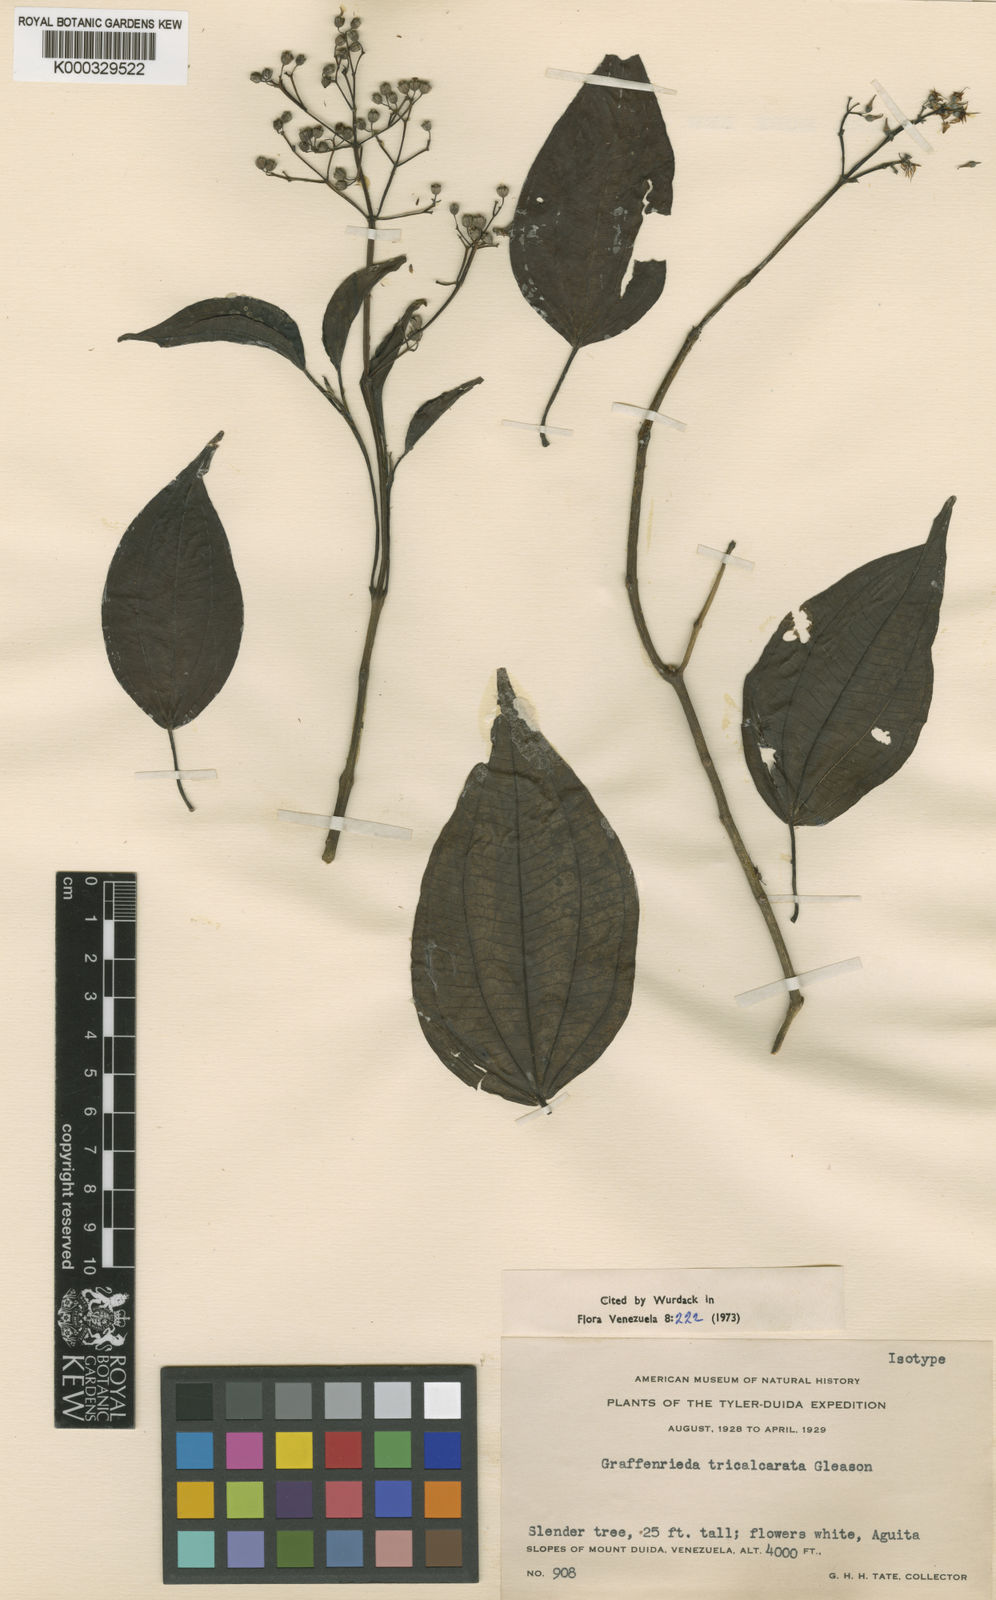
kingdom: Plantae
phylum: Tracheophyta
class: Magnoliopsida
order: Myrtales
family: Melastomataceae
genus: Graffenrieda
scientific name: Graffenrieda tricalcarata
